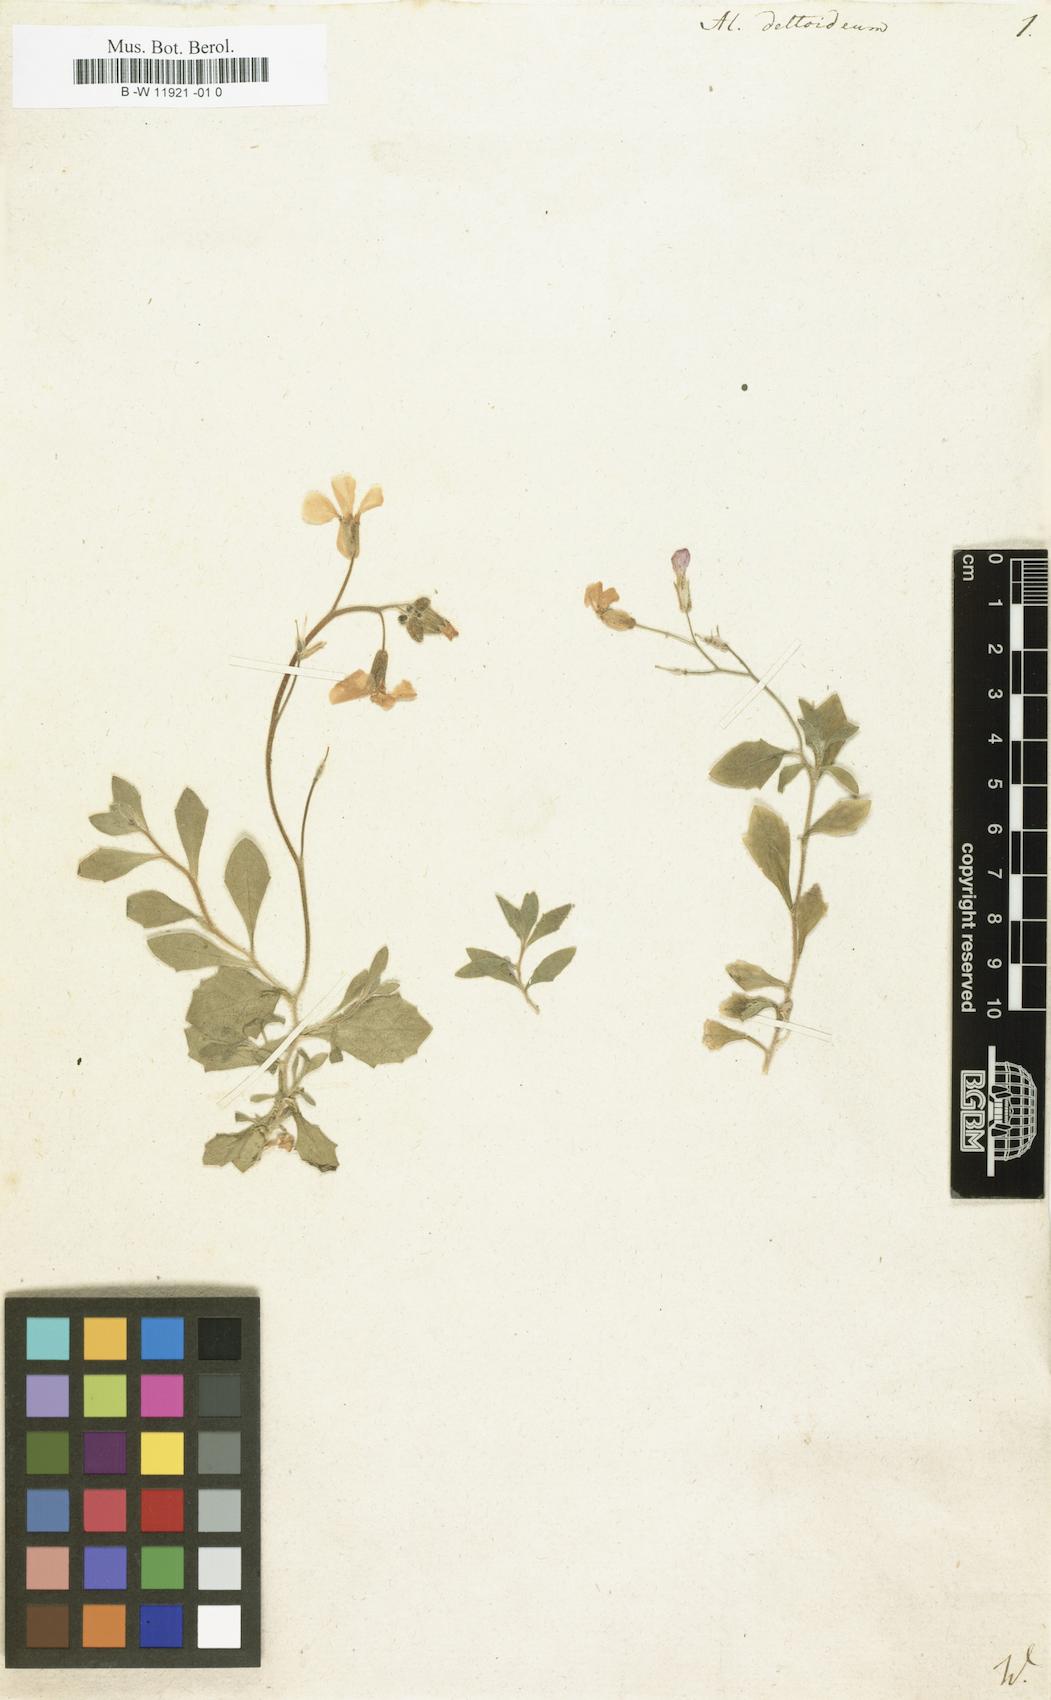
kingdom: Plantae
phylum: Tracheophyta
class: Magnoliopsida
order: Brassicales
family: Brassicaceae
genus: Aubrieta
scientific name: Aubrieta deltoidea
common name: Aubretia
